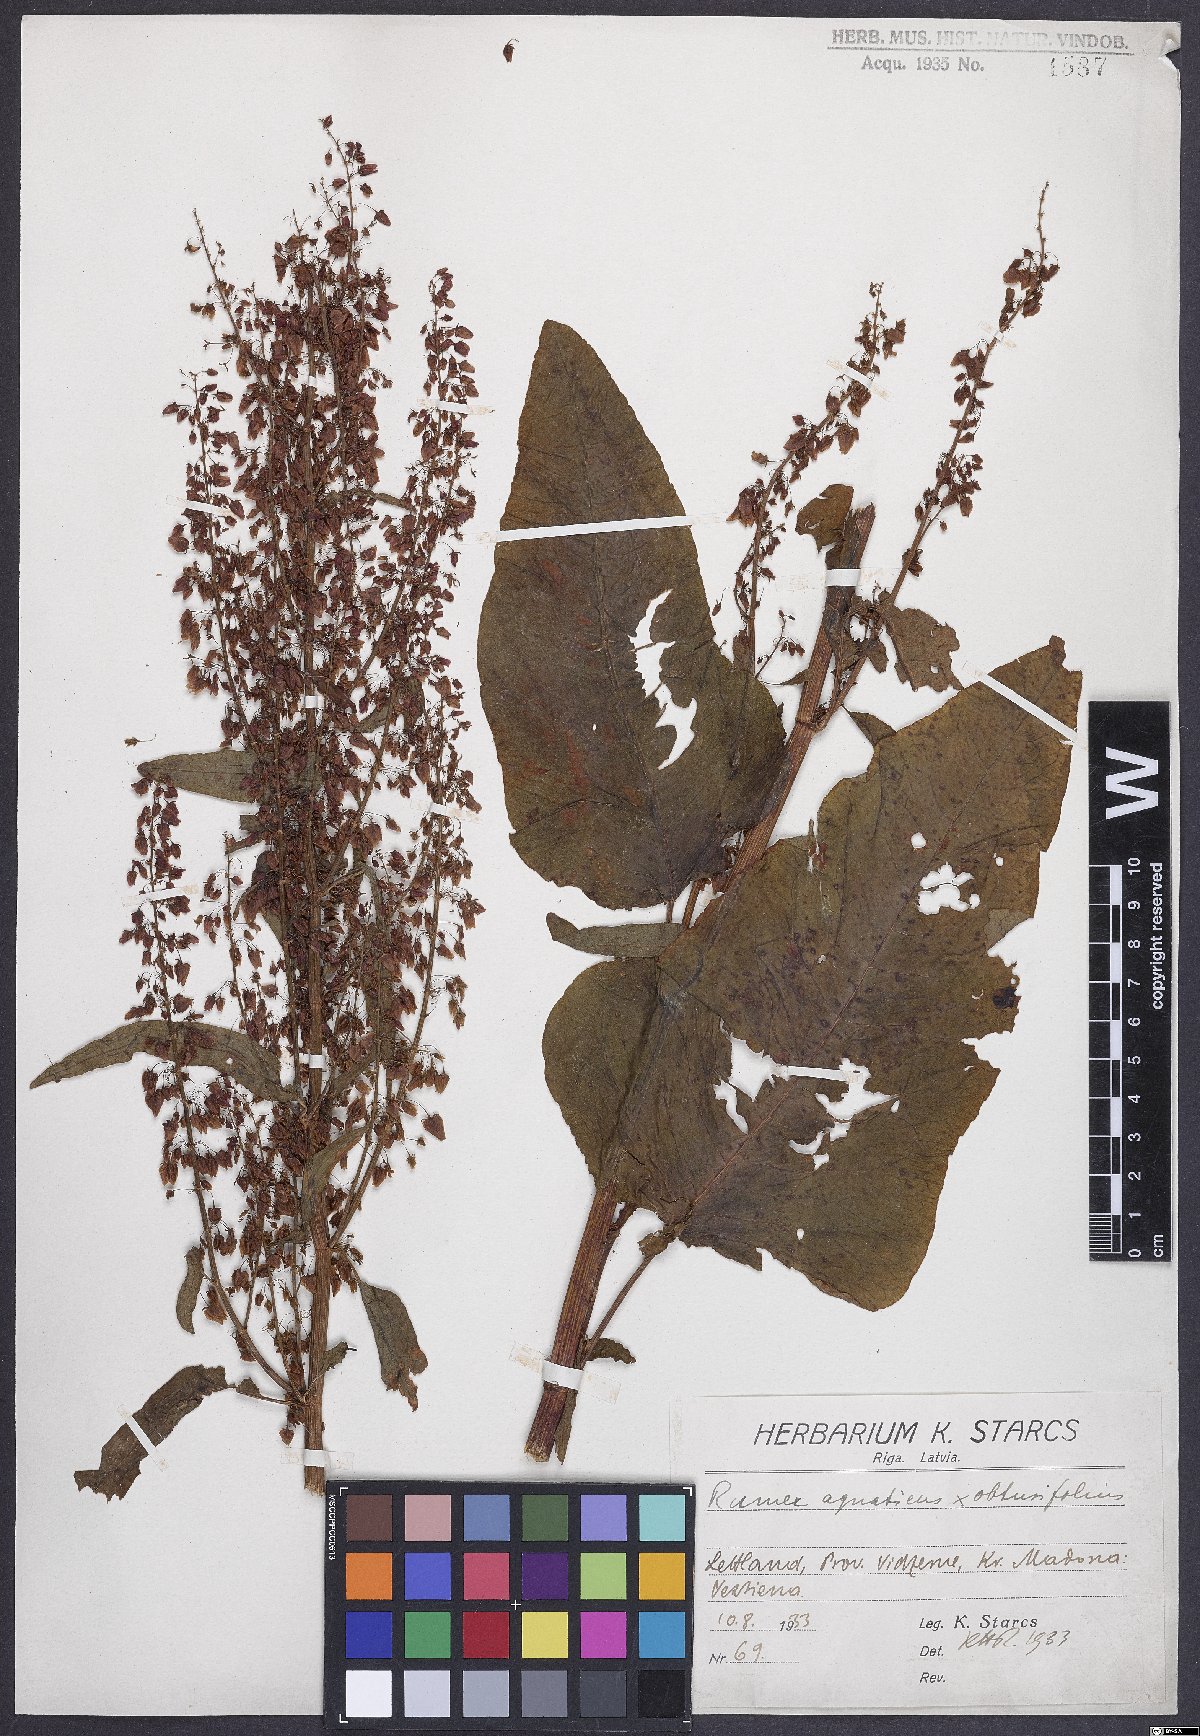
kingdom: Plantae
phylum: Tracheophyta
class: Magnoliopsida
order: Caryophyllales
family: Polygonaceae
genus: Rumex
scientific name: Rumex
